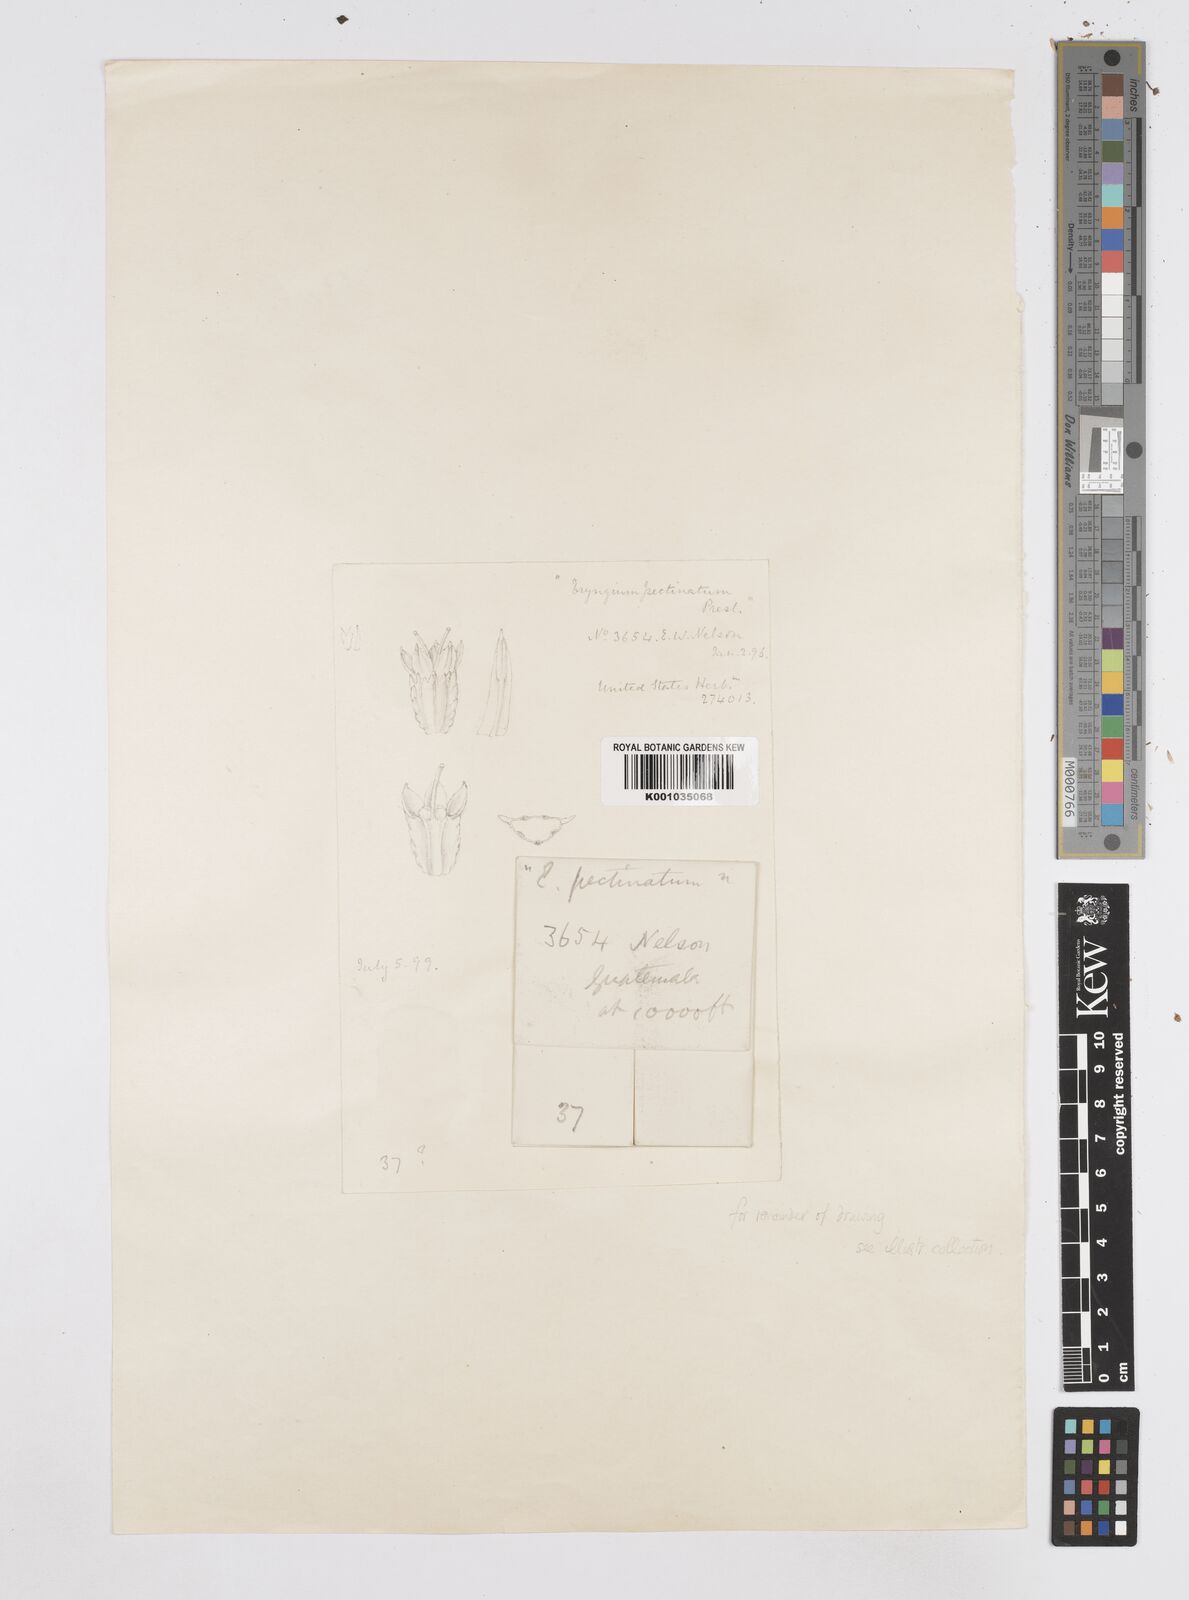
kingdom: Plantae
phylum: Tracheophyta
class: Magnoliopsida
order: Apiales
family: Apiaceae
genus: Eryngium
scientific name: Eryngium pectinatum
